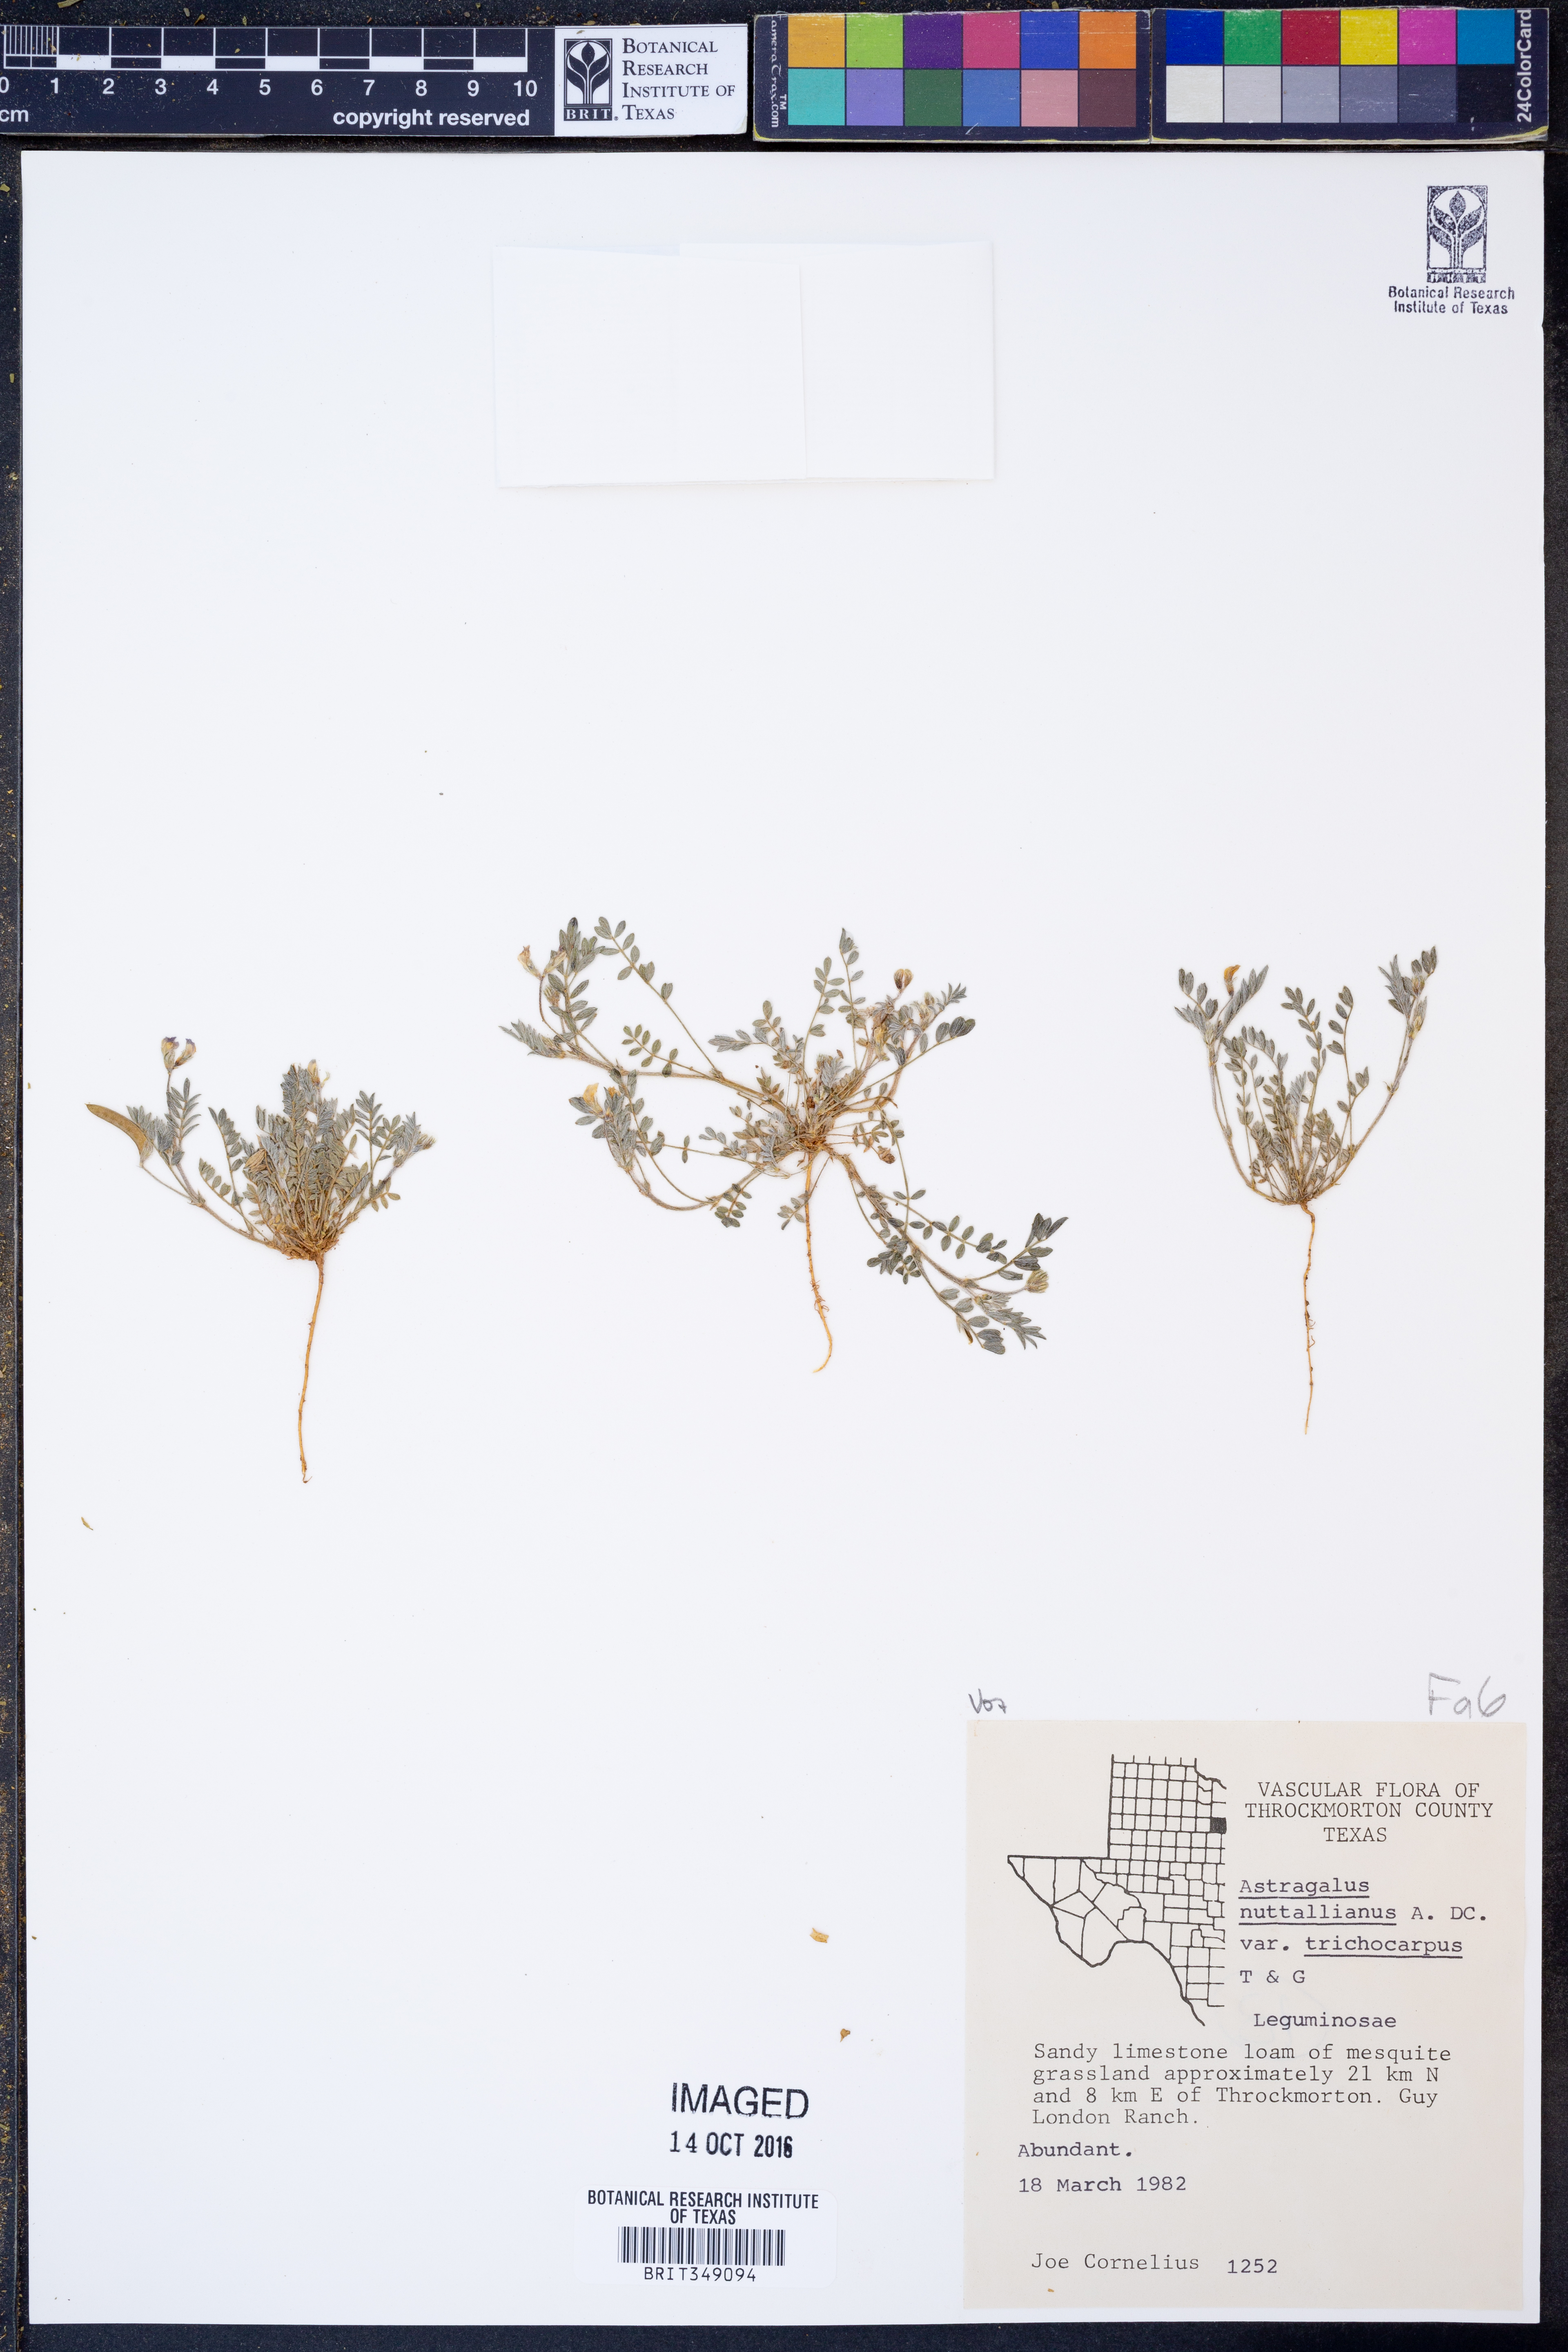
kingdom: Plantae
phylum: Tracheophyta
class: Magnoliopsida
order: Fabales
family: Fabaceae
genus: Astragalus
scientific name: Astragalus nuttallianus
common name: Smallflowered milkvetch
